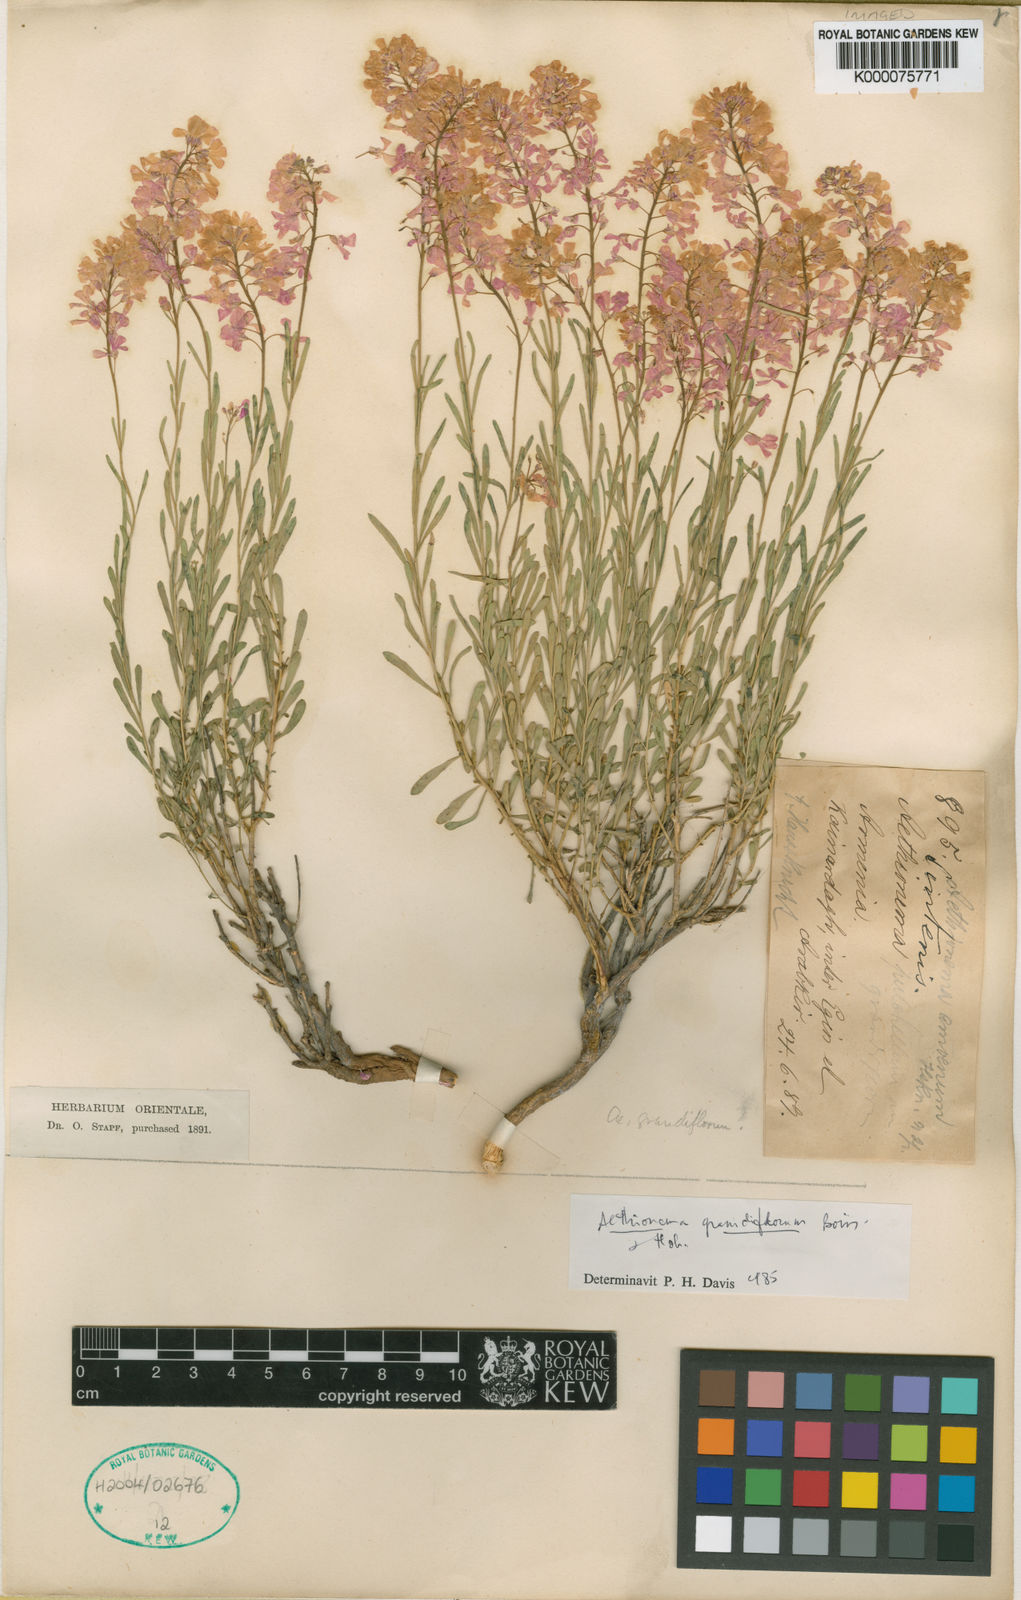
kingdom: Plantae
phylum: Tracheophyta
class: Magnoliopsida
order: Brassicales
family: Brassicaceae
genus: Aethionema
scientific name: Aethionema grandiflorum
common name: Persian stonecress
